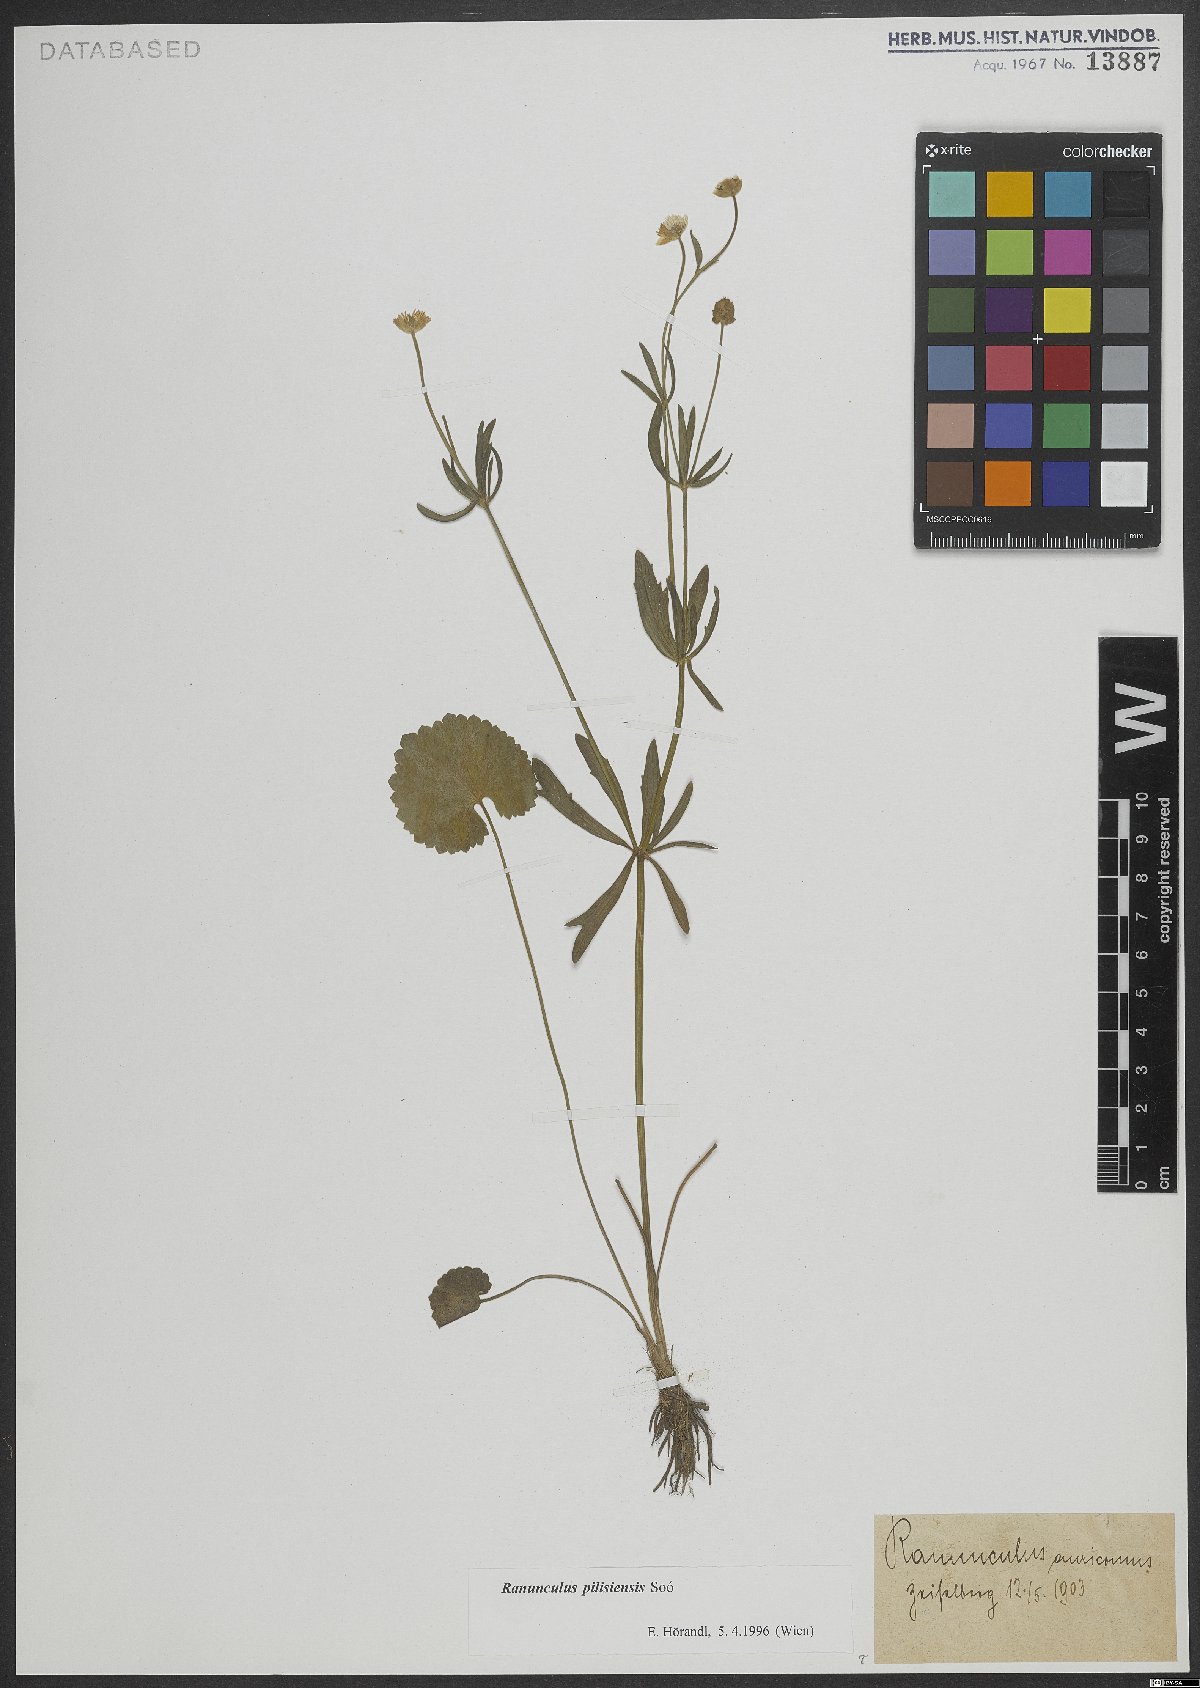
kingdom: Plantae
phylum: Tracheophyta
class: Magnoliopsida
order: Ranunculales
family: Ranunculaceae
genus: Ranunculus
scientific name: Ranunculus pilisiensis
